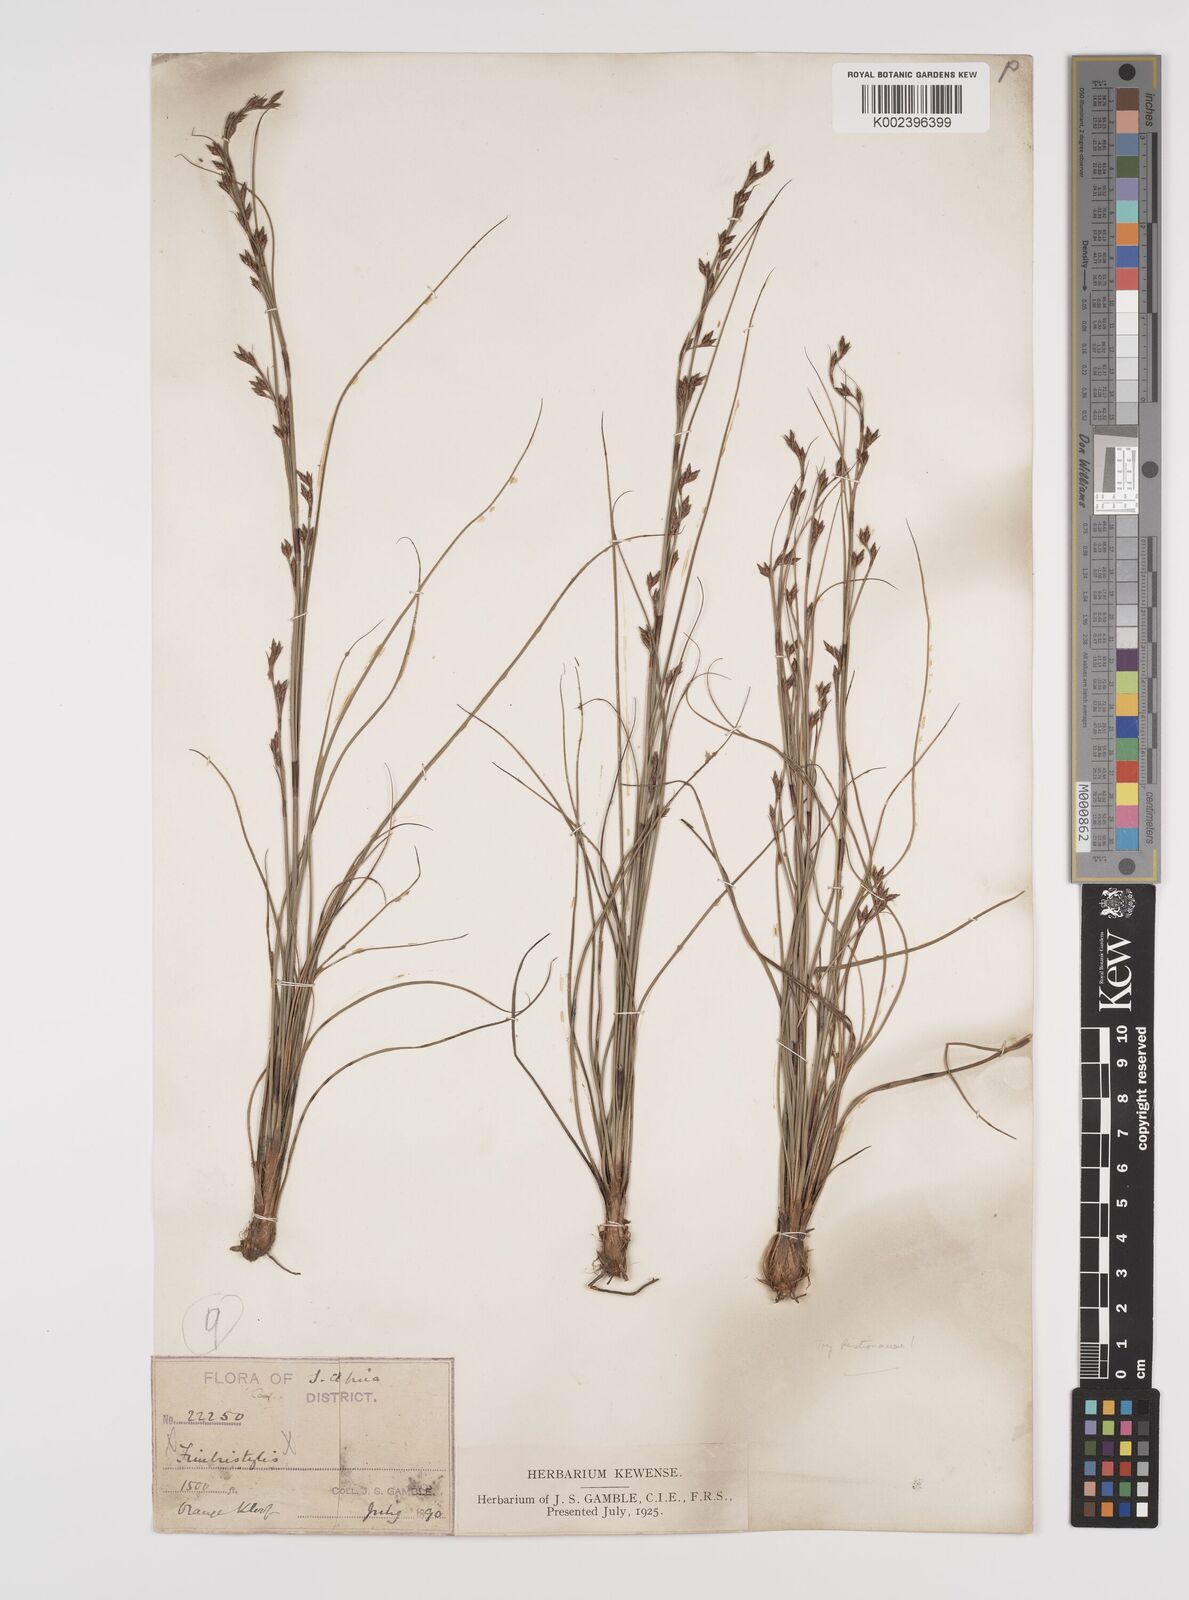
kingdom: Plantae
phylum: Tracheophyta
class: Liliopsida
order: Poales
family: Cyperaceae
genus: Tetraria
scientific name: Tetraria
